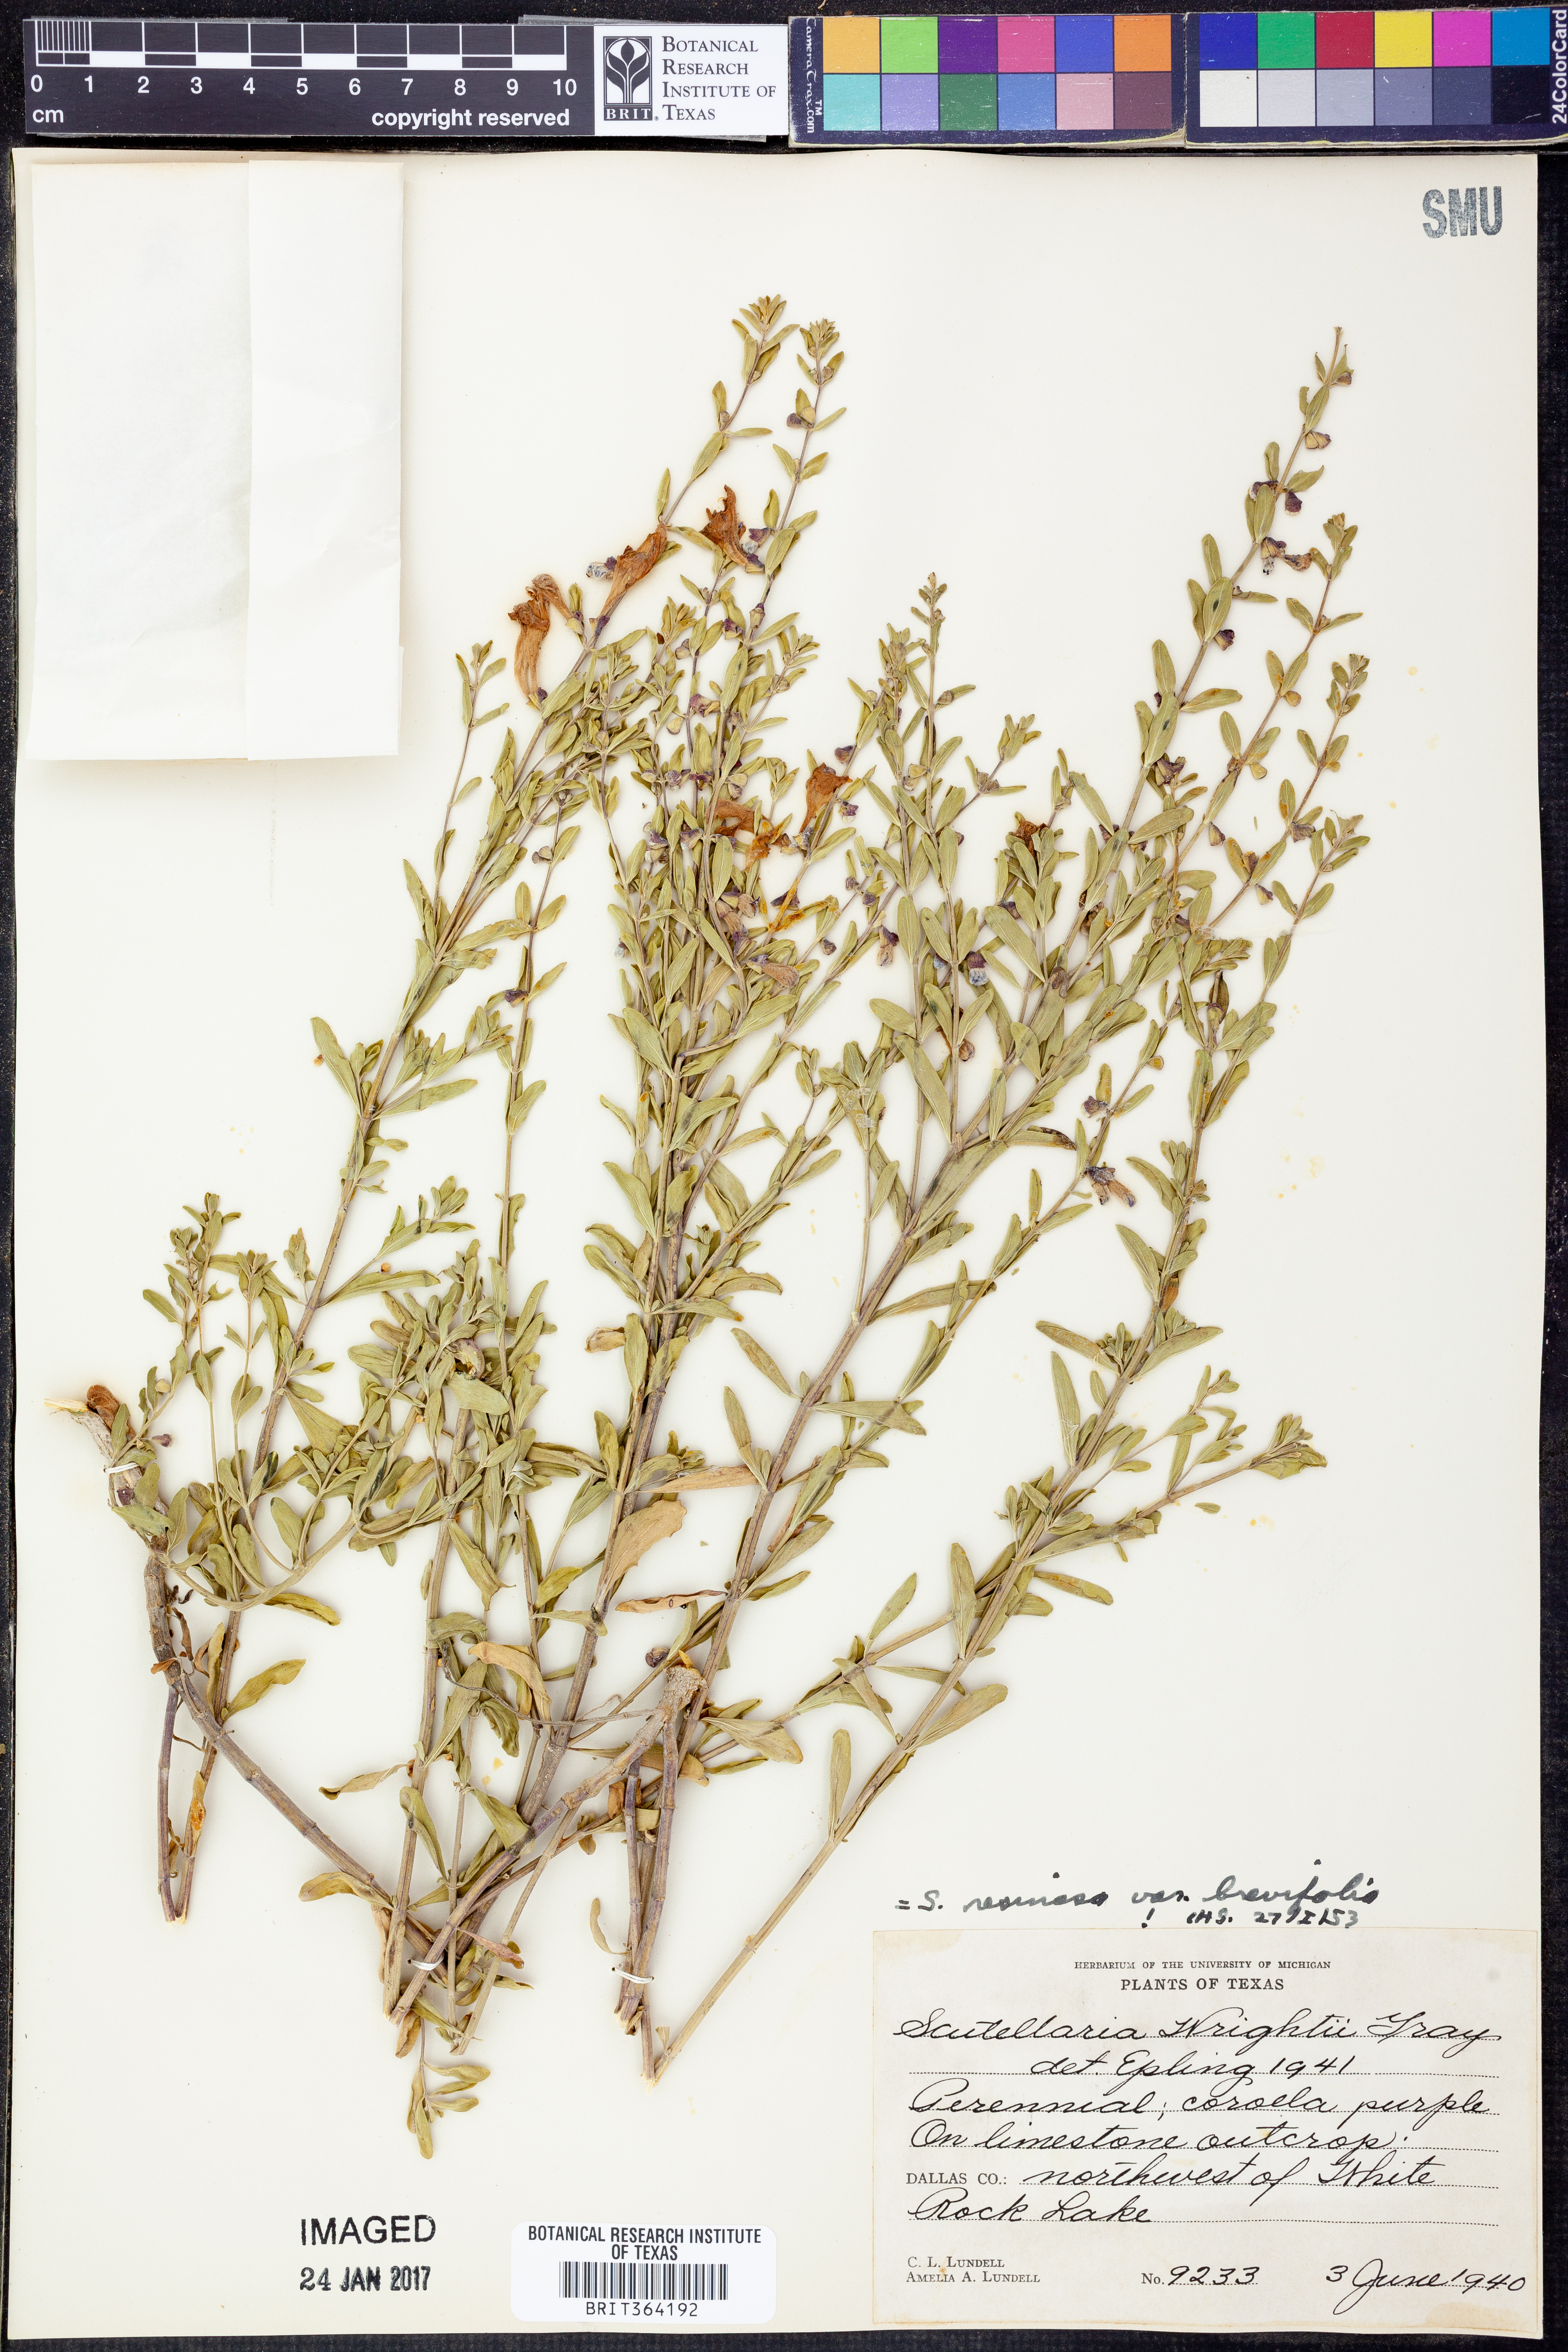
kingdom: Plantae
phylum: Tracheophyta
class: Magnoliopsida
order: Lamiales
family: Lamiaceae
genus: Scutellaria
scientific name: Scutellaria resinosa
